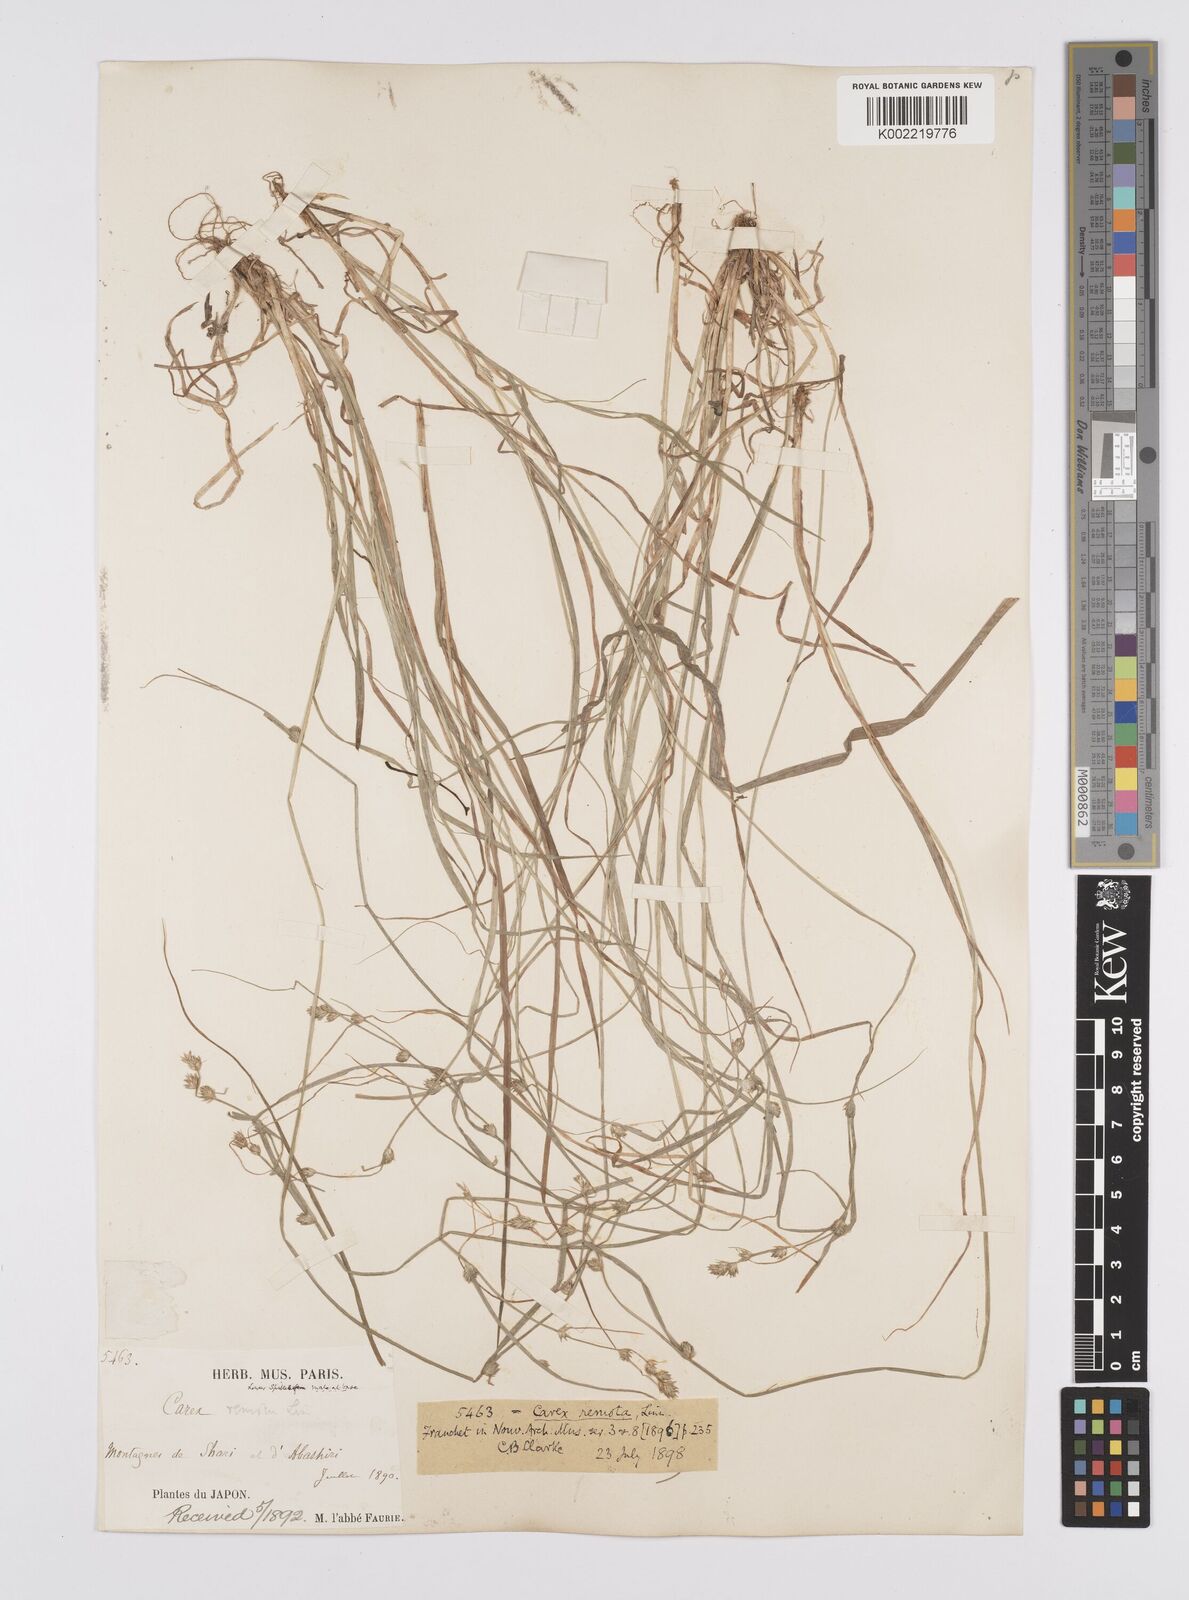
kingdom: Plantae
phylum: Tracheophyta
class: Liliopsida
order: Poales
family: Cyperaceae
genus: Carex
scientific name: Carex remota
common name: Remote sedge
